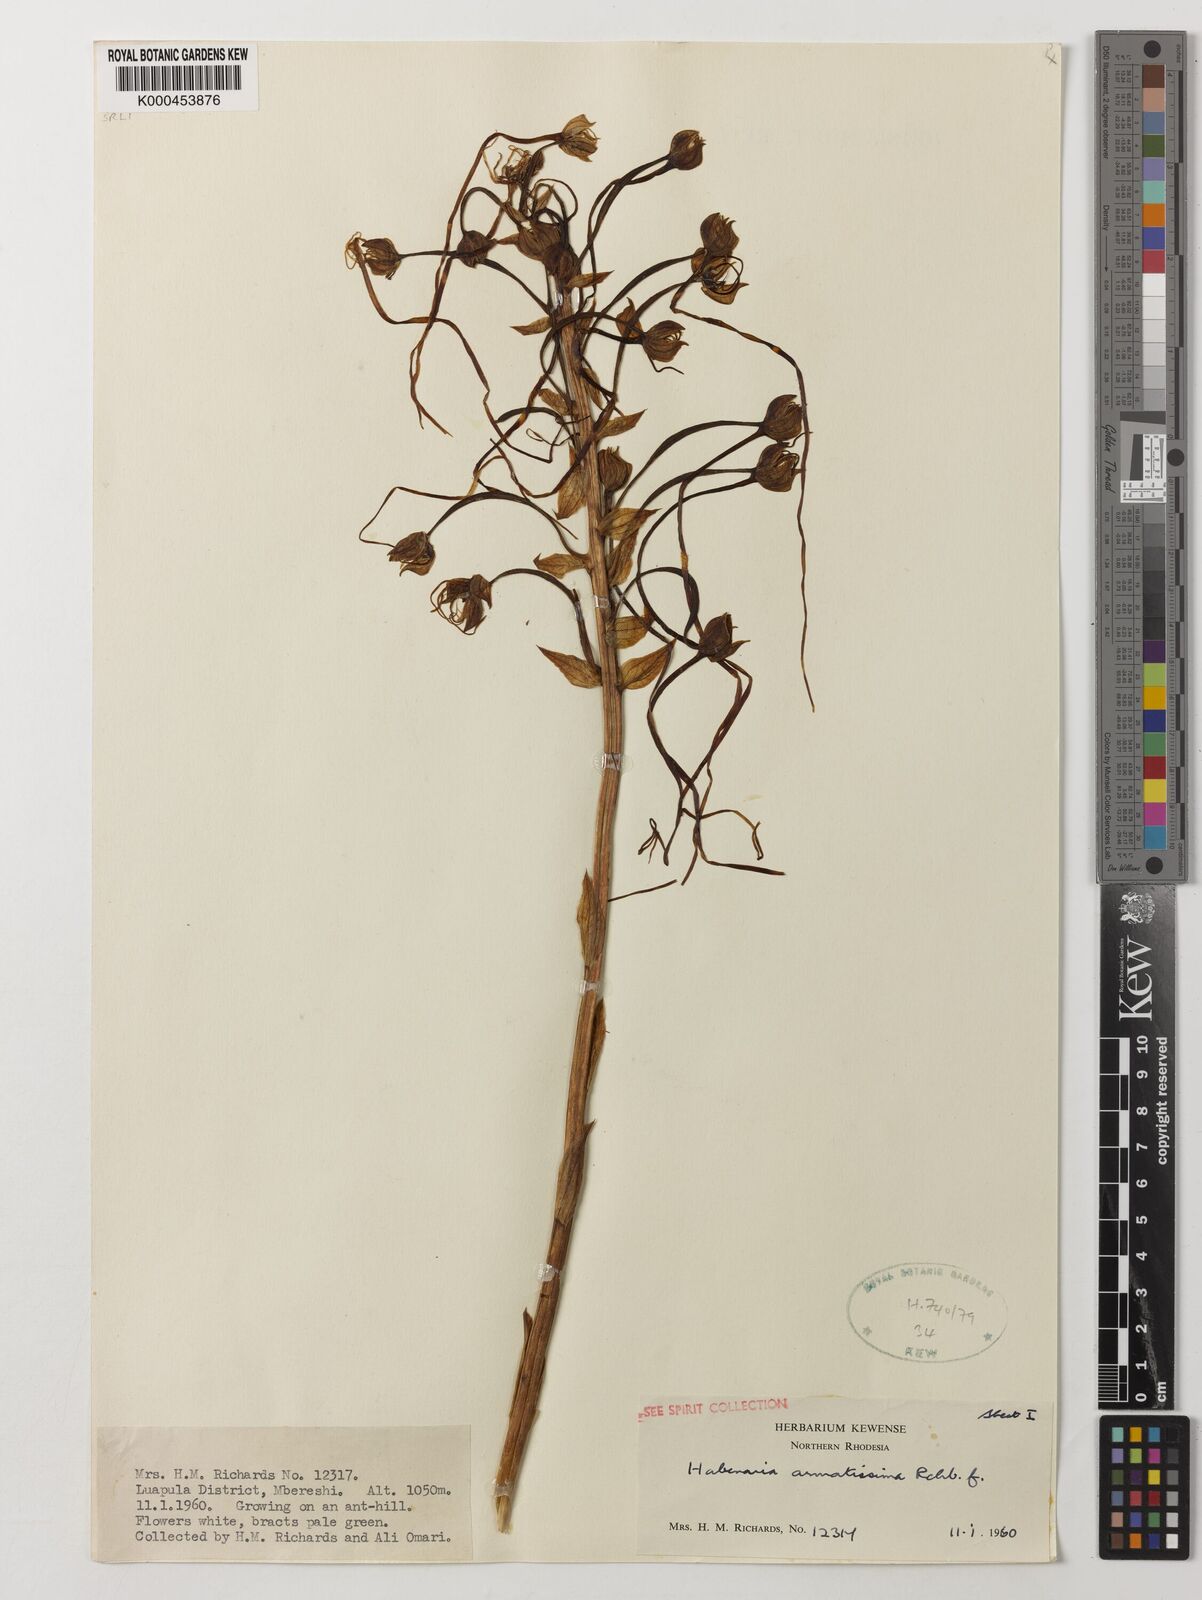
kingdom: Plantae
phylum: Tracheophyta
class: Liliopsida
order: Asparagales
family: Orchidaceae
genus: Habenaria
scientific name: Habenaria armatissima
